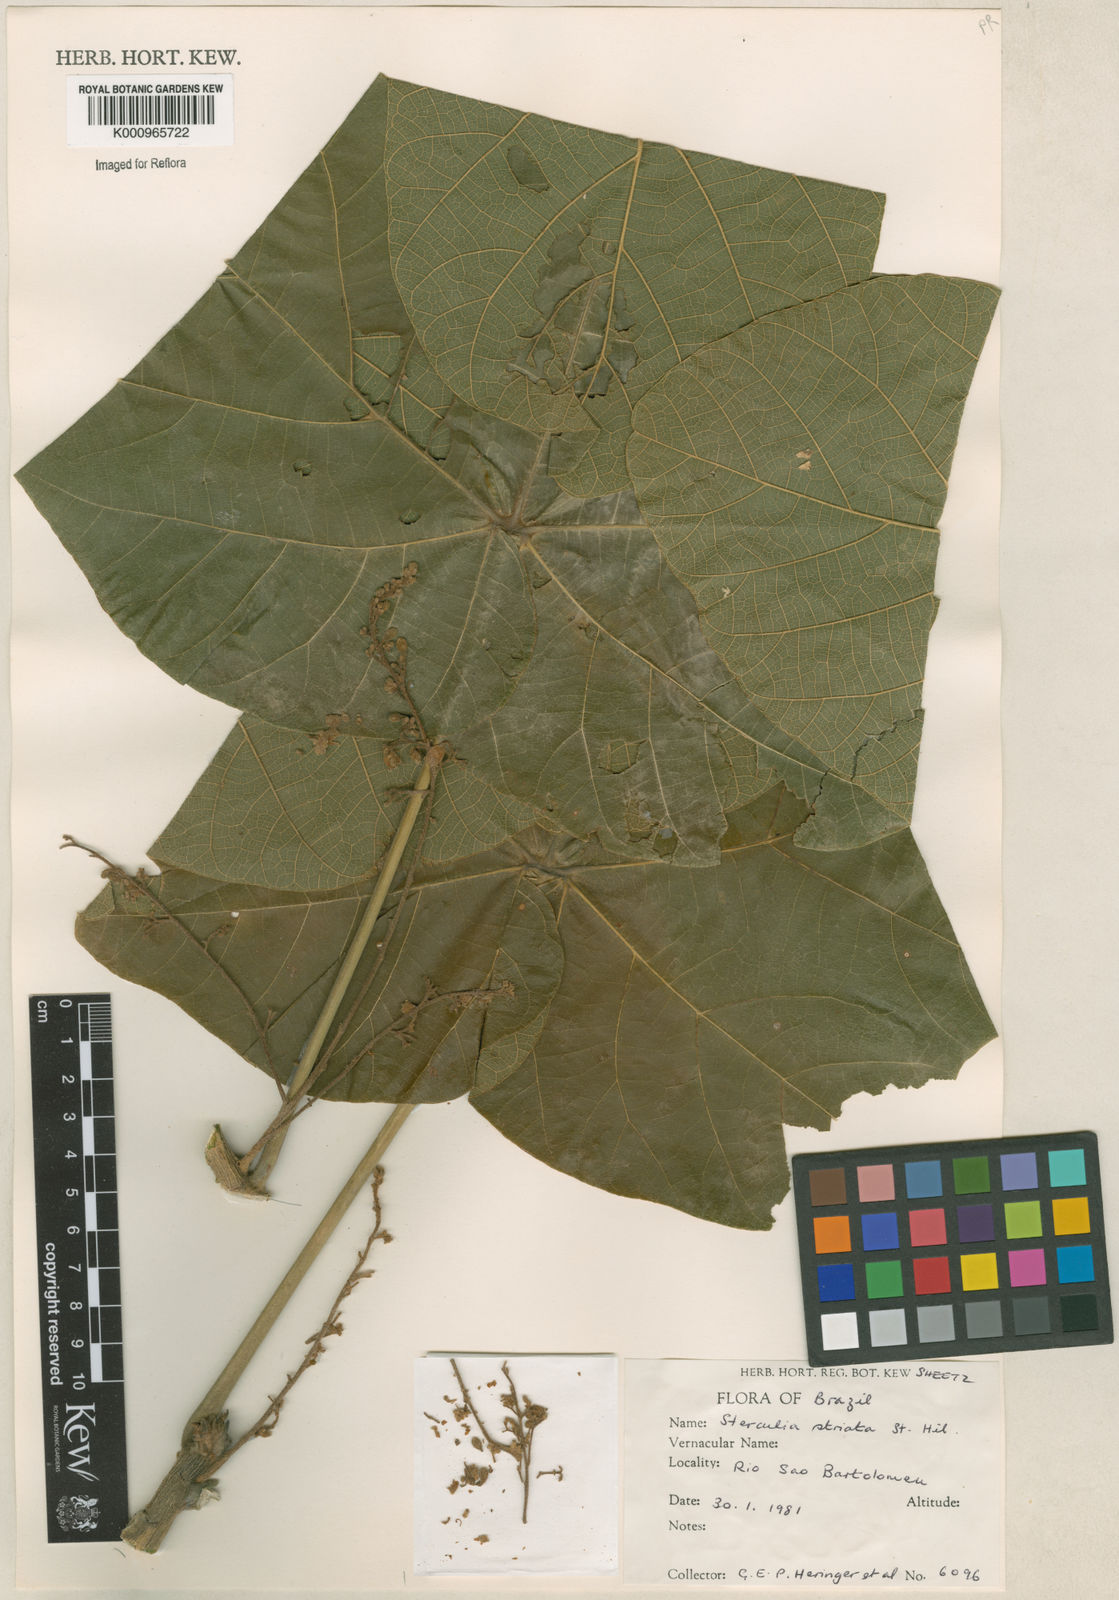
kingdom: Plantae
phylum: Tracheophyta
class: Magnoliopsida
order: Malvales
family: Malvaceae
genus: Sterculia
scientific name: Sterculia striata
